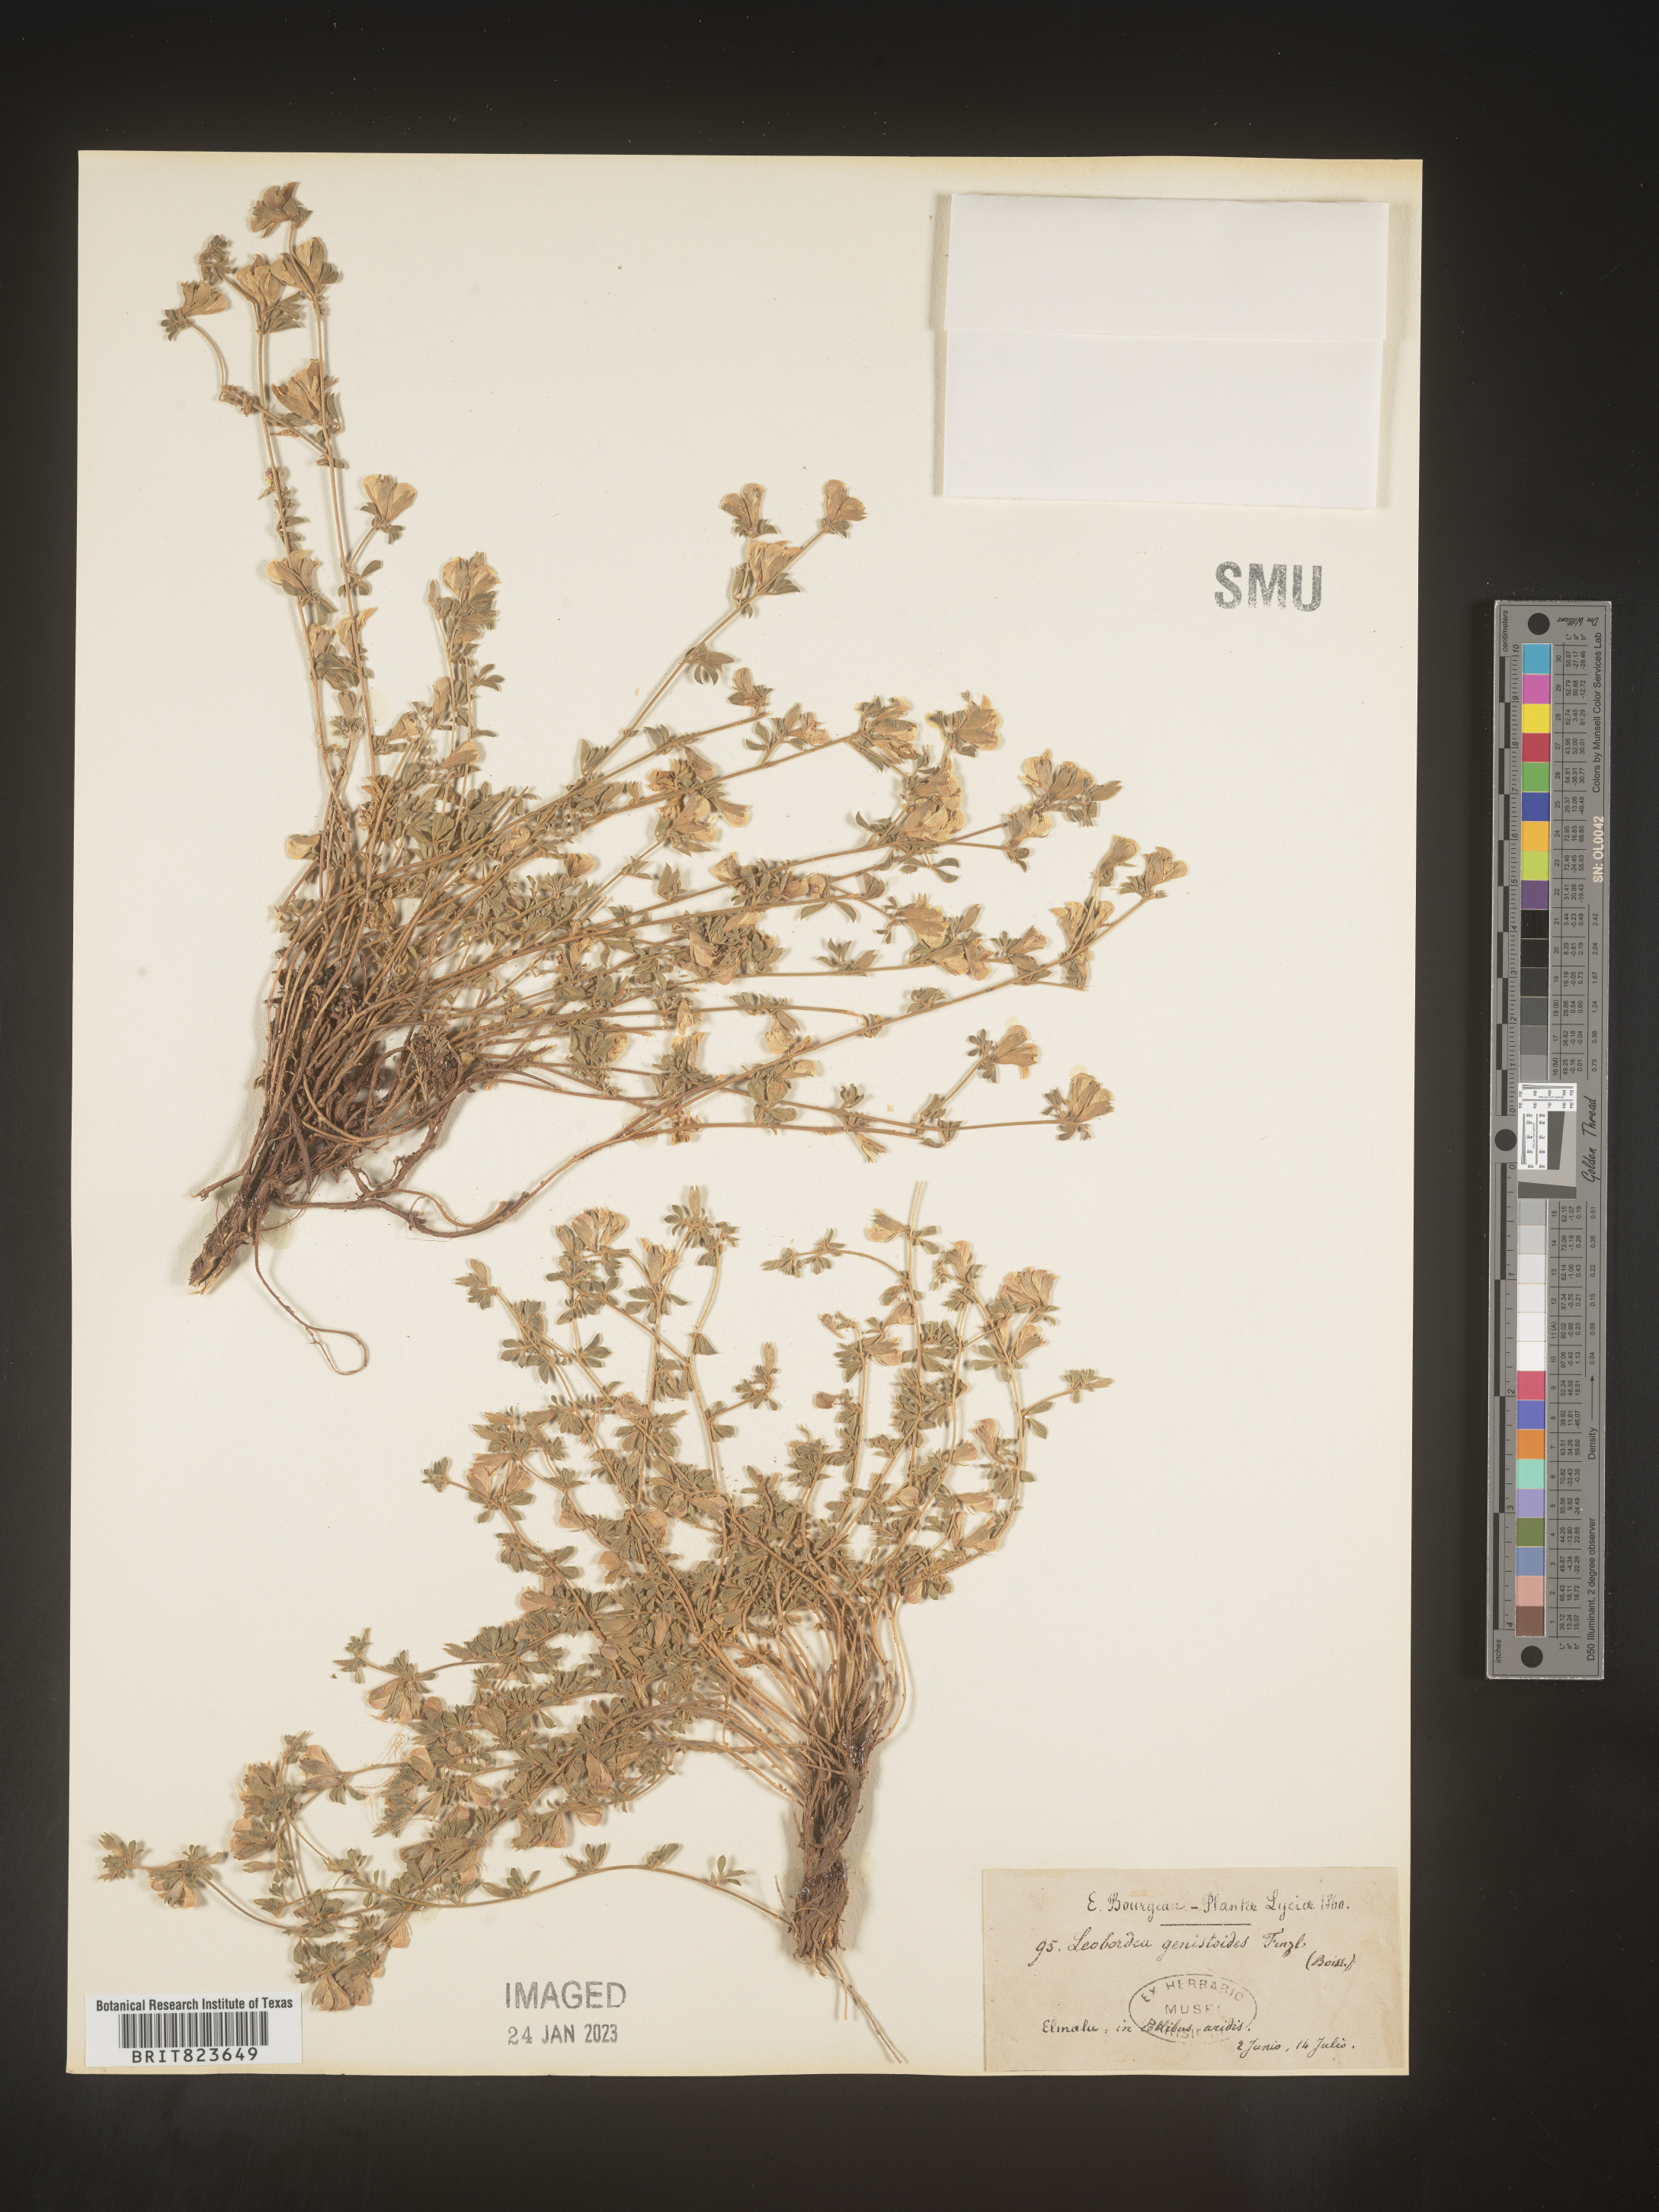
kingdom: Plantae
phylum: Tracheophyta
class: Magnoliopsida
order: Fabales
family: Fabaceae
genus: Lotononis
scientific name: Lotononis
